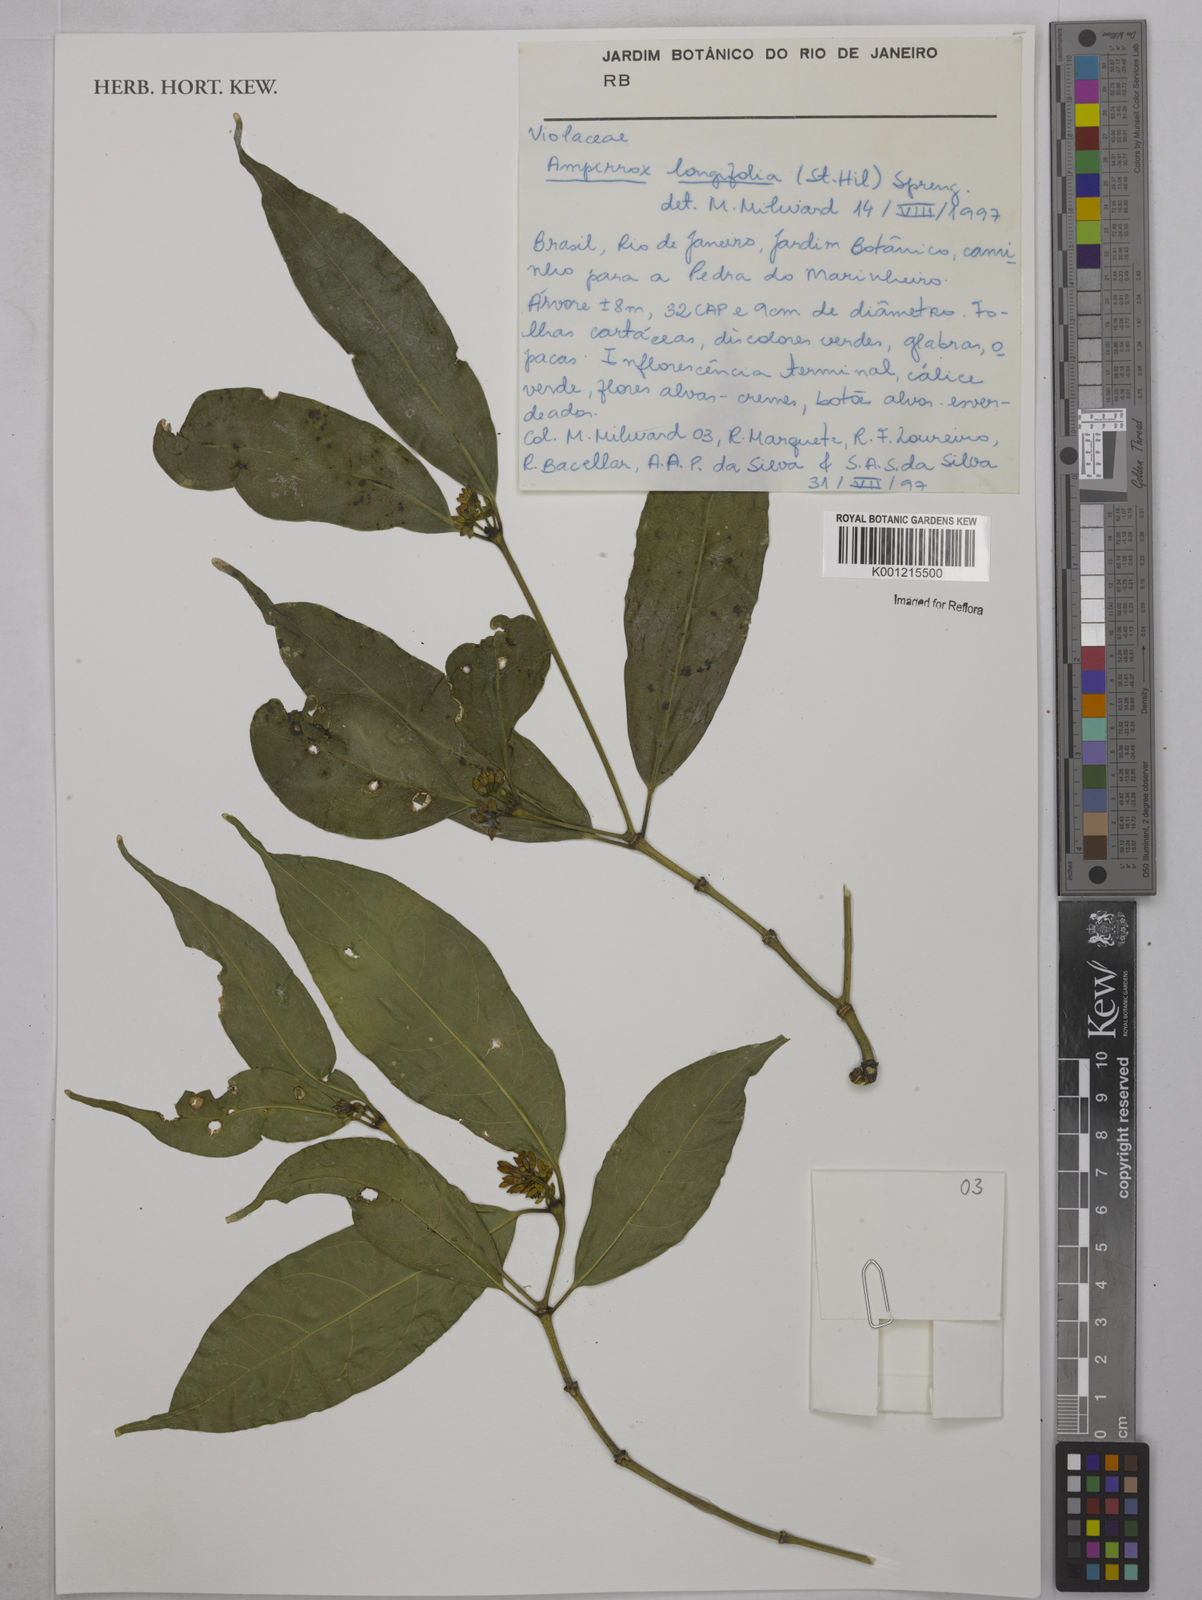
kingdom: Plantae
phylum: Tracheophyta
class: Magnoliopsida
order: Malpighiales
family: Violaceae
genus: Amphirrhox
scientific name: Amphirrhox longifolia
